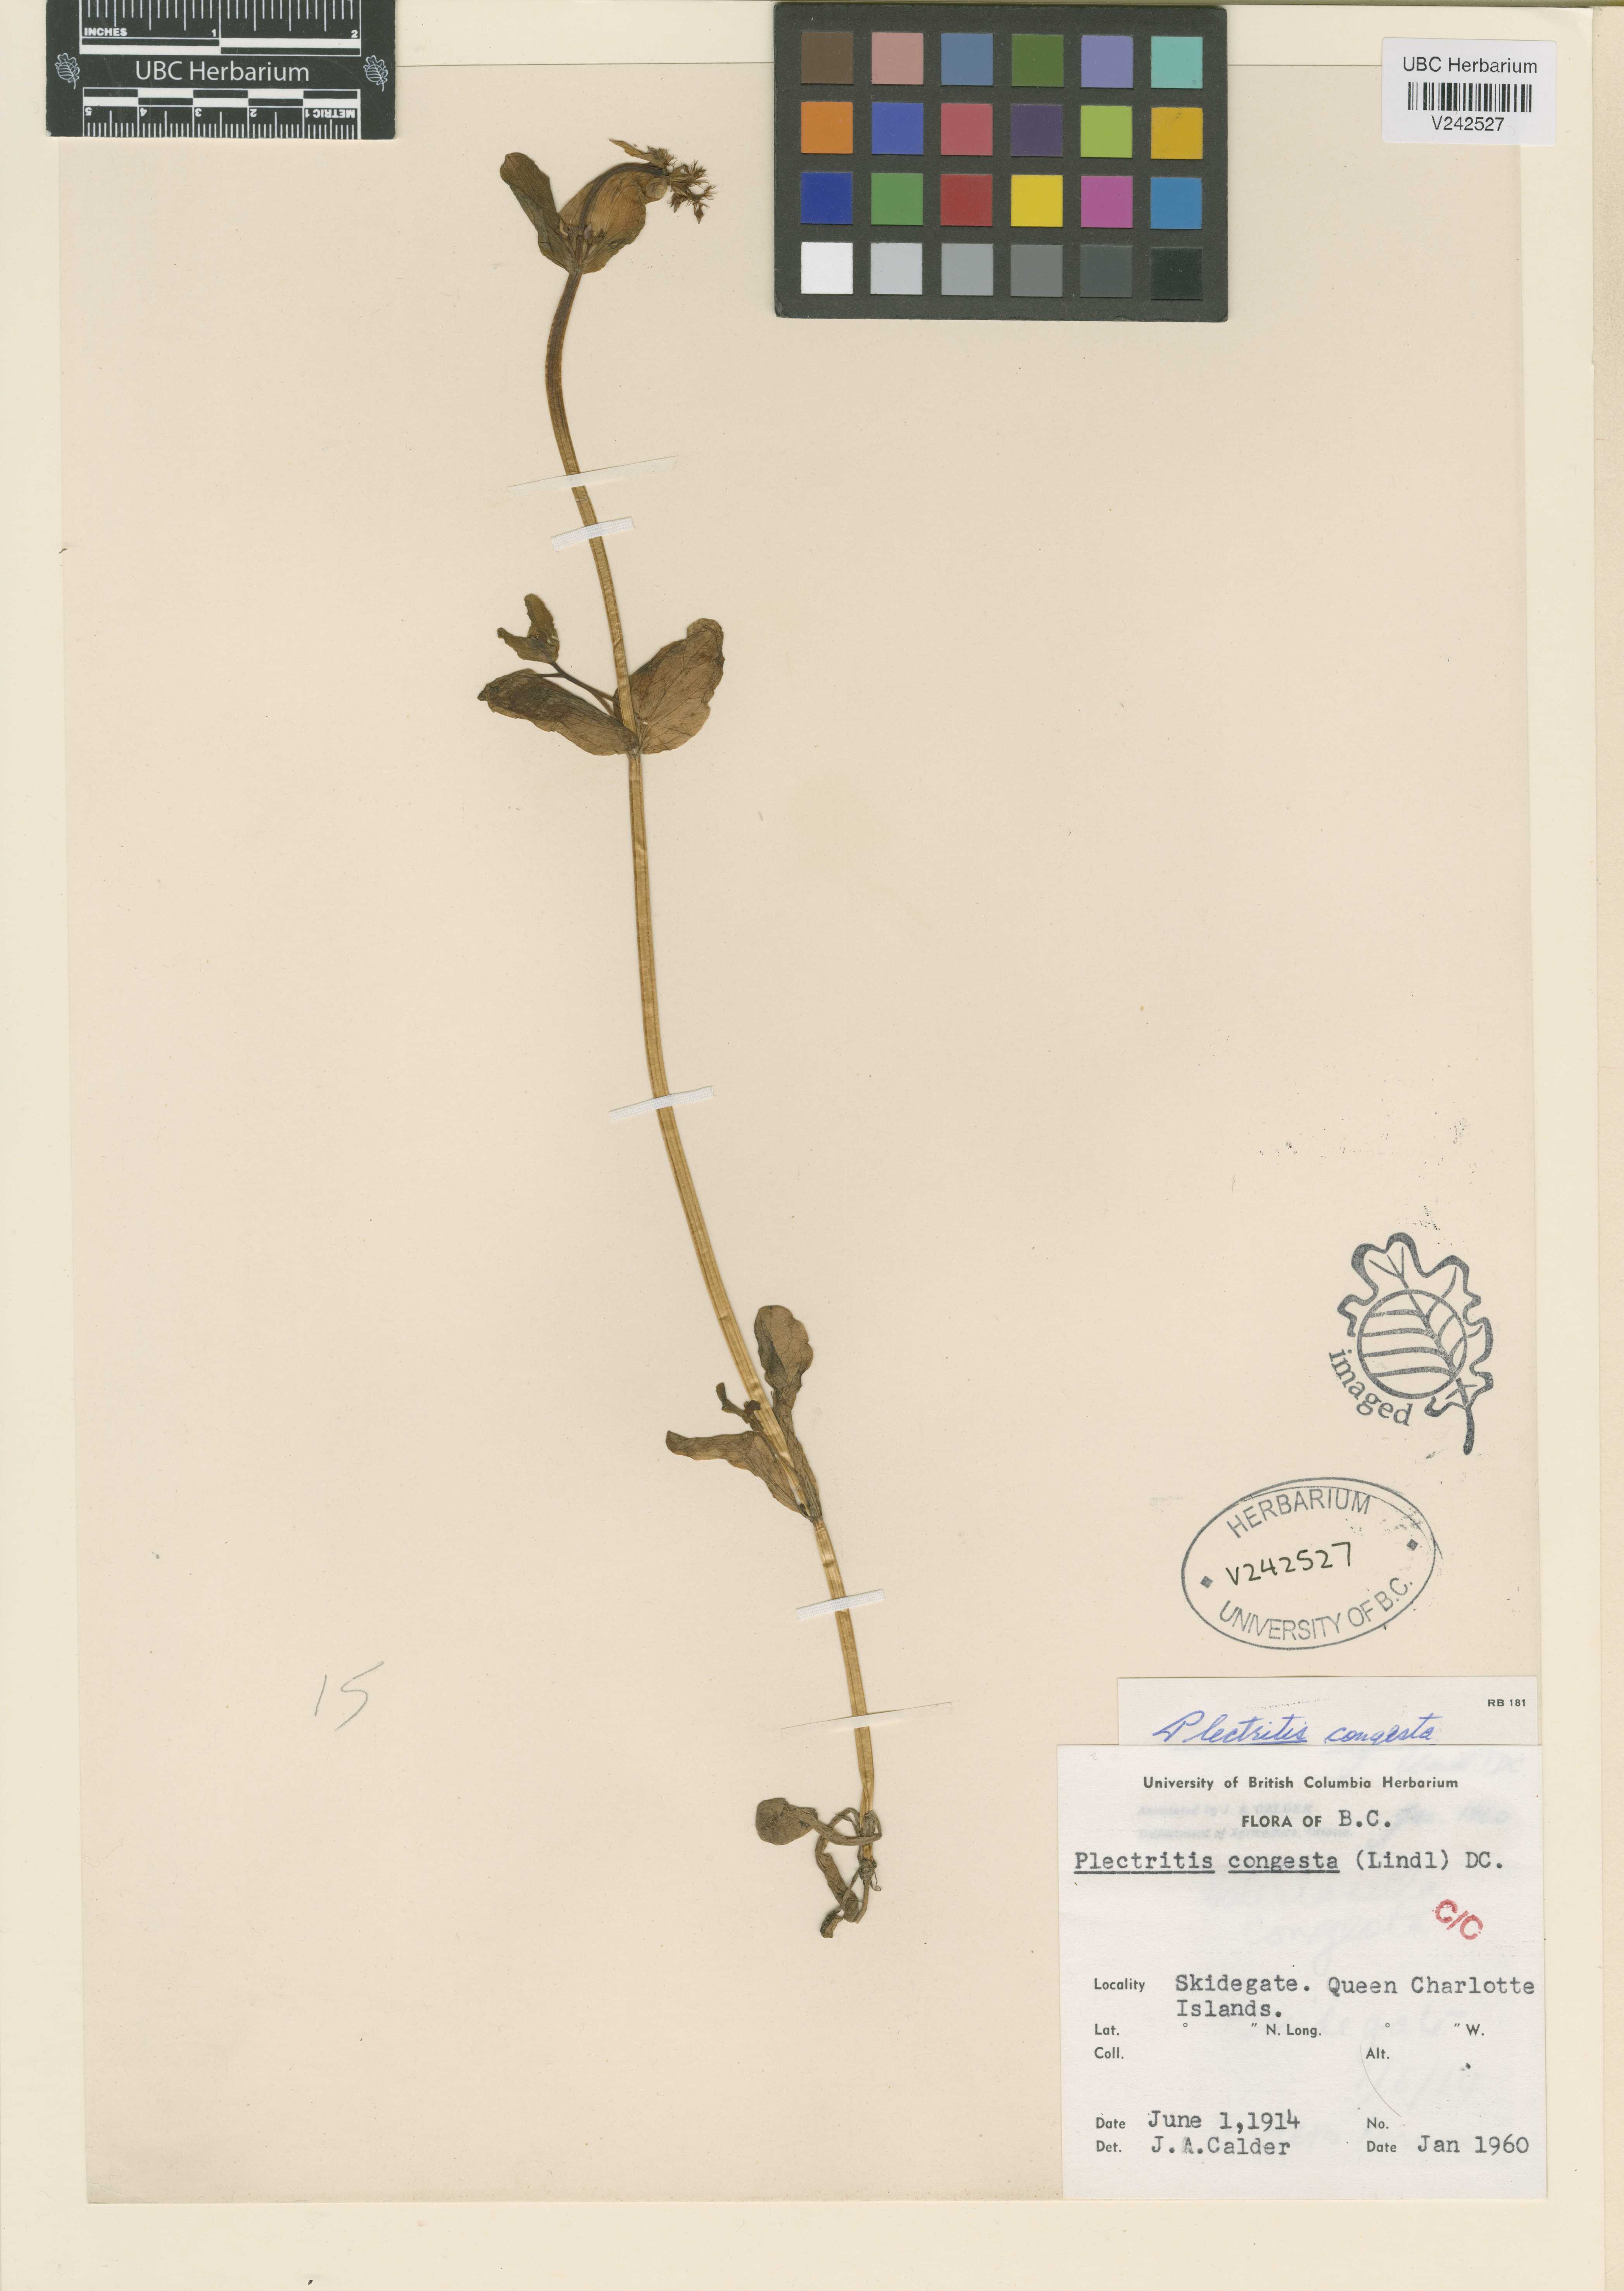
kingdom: Plantae
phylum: Tracheophyta
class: Magnoliopsida
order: Dipsacales
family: Caprifoliaceae
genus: Plectritis
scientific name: Plectritis congesta
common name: Pink plectritis
